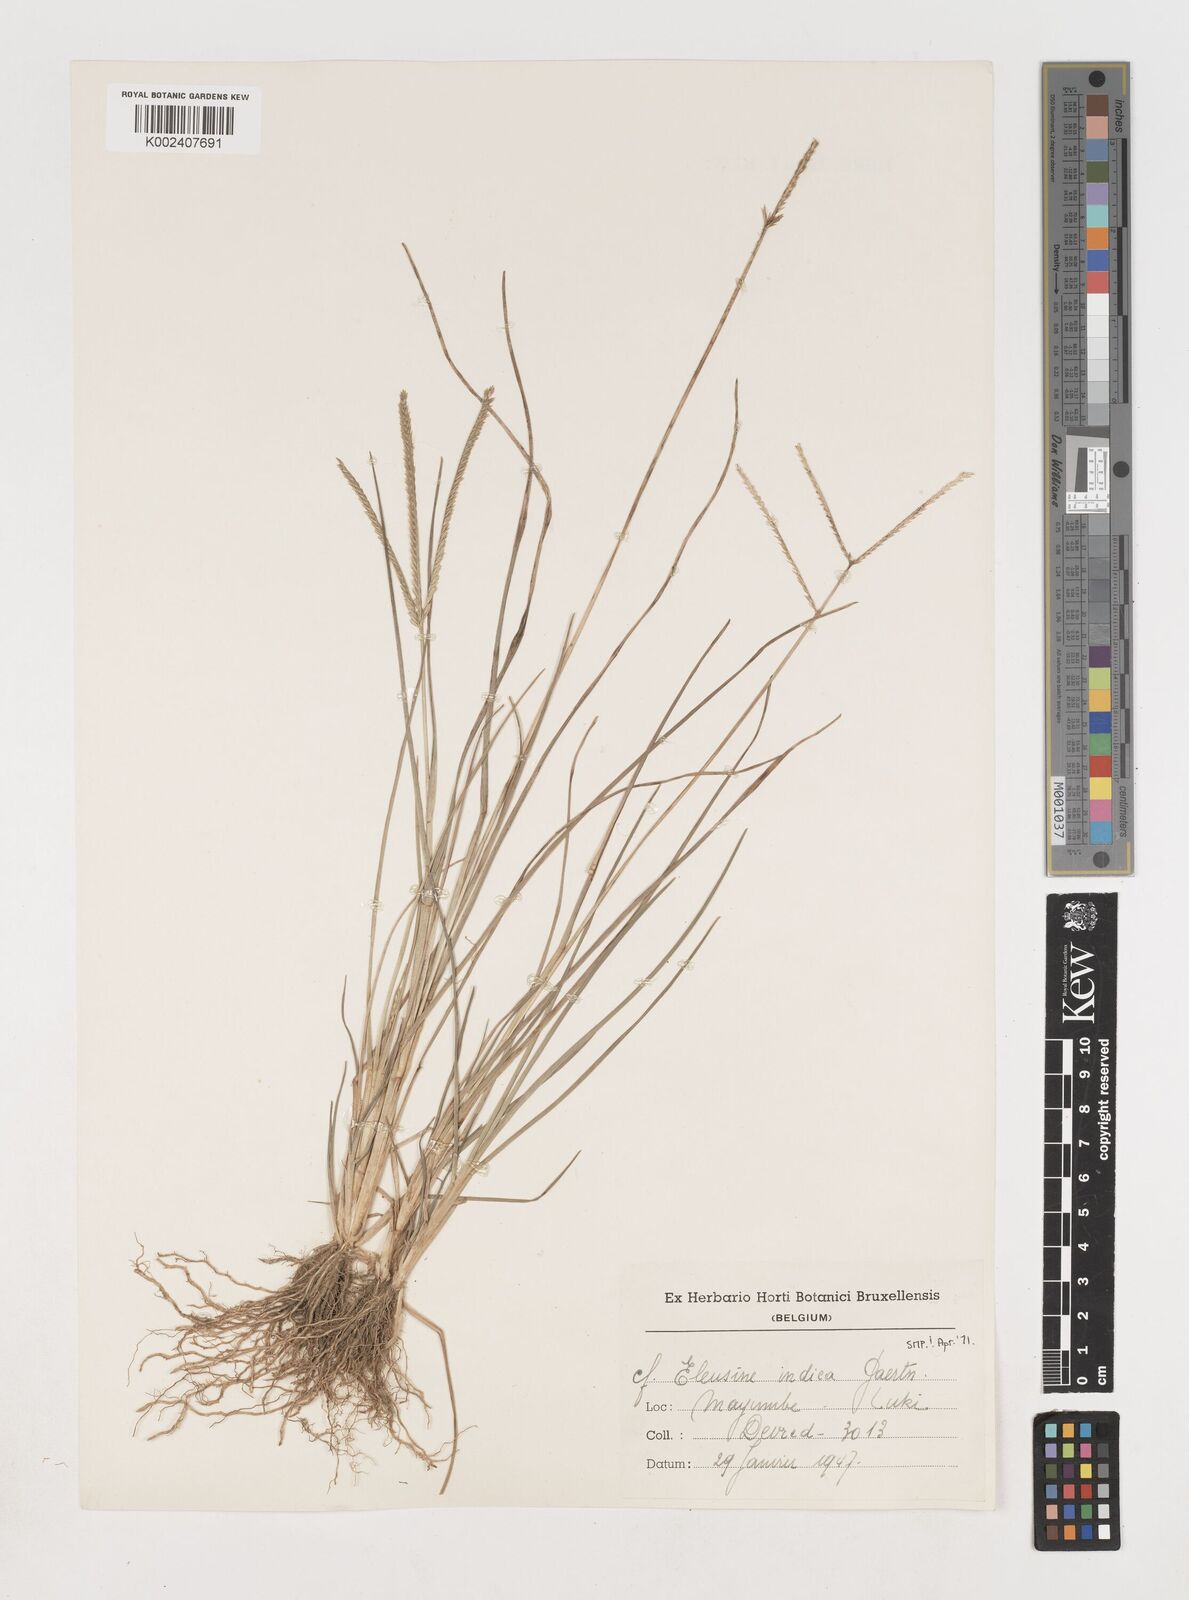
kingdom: Plantae
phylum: Tracheophyta
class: Liliopsida
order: Poales
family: Poaceae
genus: Eleusine
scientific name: Eleusine indica
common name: Yard-grass
